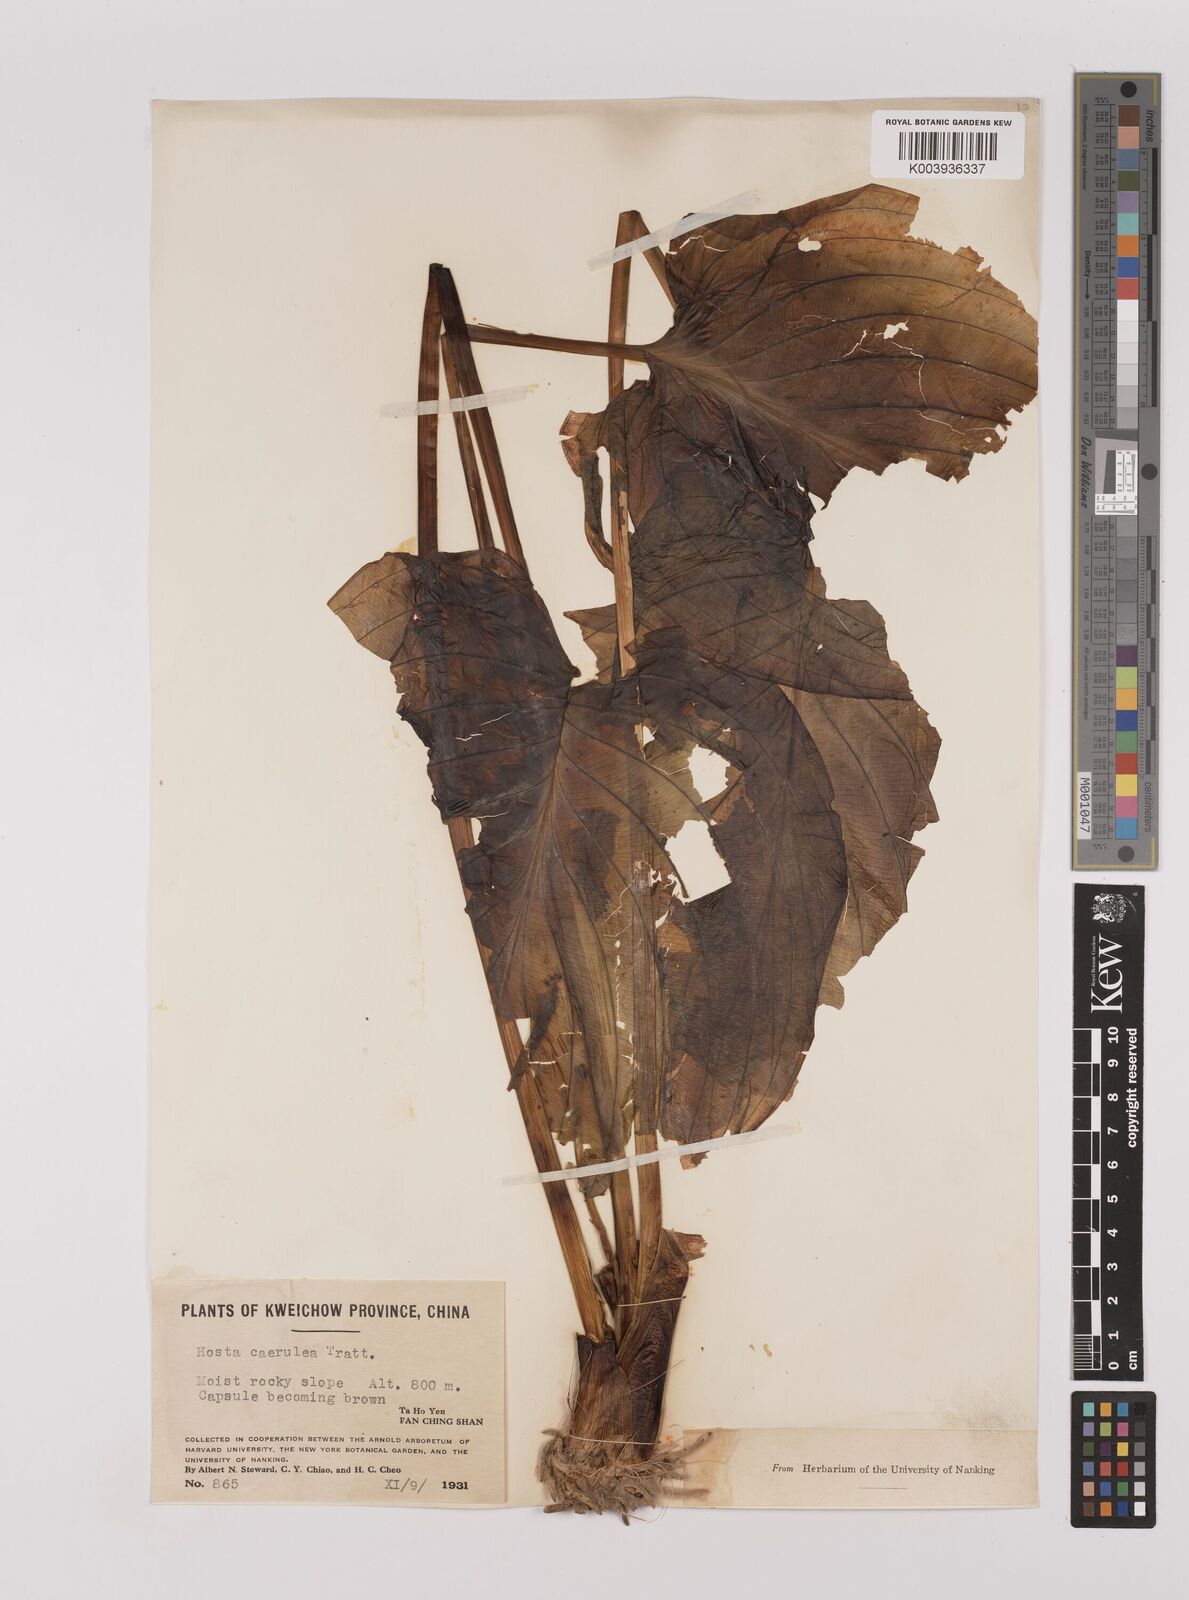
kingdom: Plantae
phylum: Tracheophyta
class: Liliopsida
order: Asparagales
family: Asparagaceae
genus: Hosta
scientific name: Hosta ventricosa
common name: Blue plantain-lily
